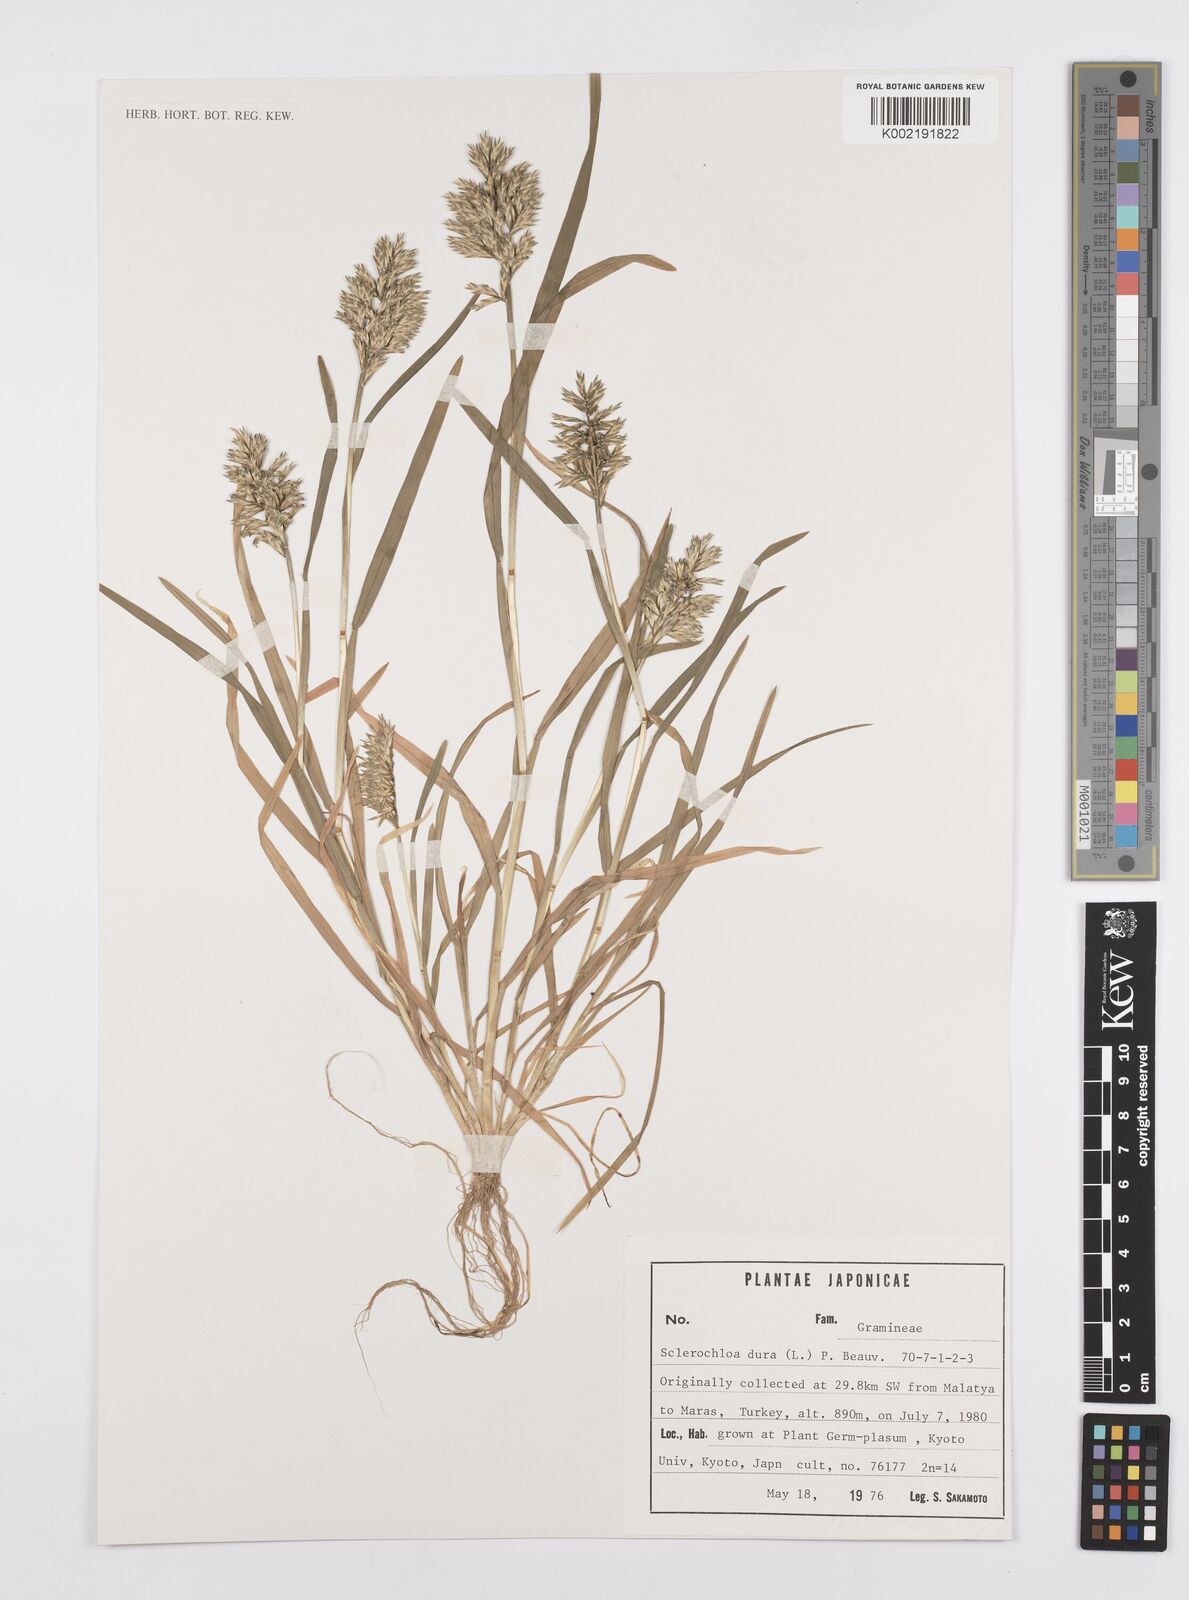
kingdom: Plantae
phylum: Tracheophyta
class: Liliopsida
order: Poales
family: Poaceae
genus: Sclerochloa
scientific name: Sclerochloa dura
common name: Common hardgrass
